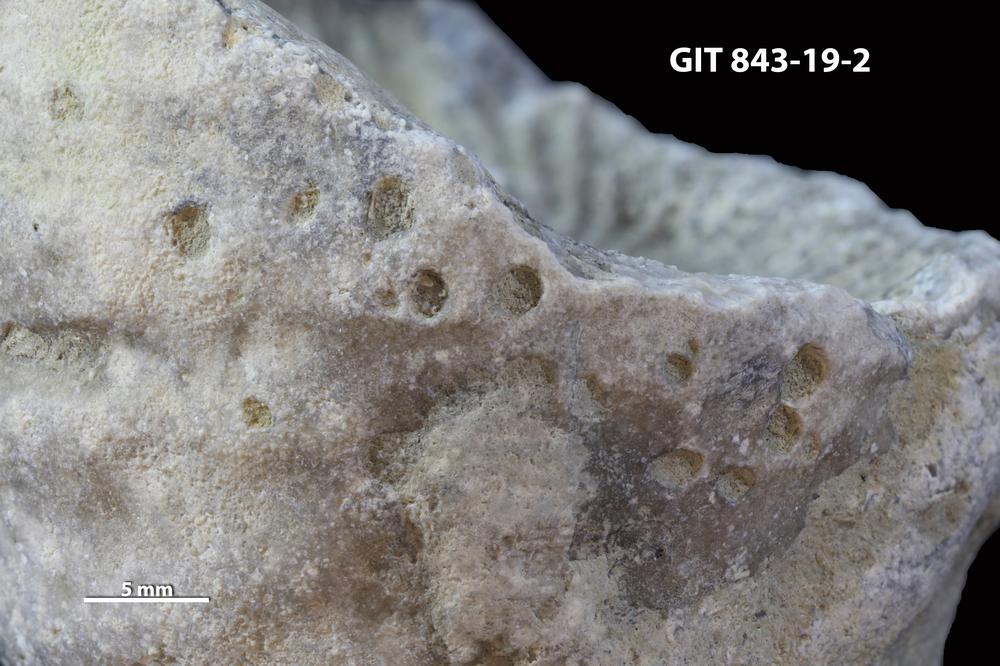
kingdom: Animalia
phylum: Sipuncula
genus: Trypanites
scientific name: Trypanites
